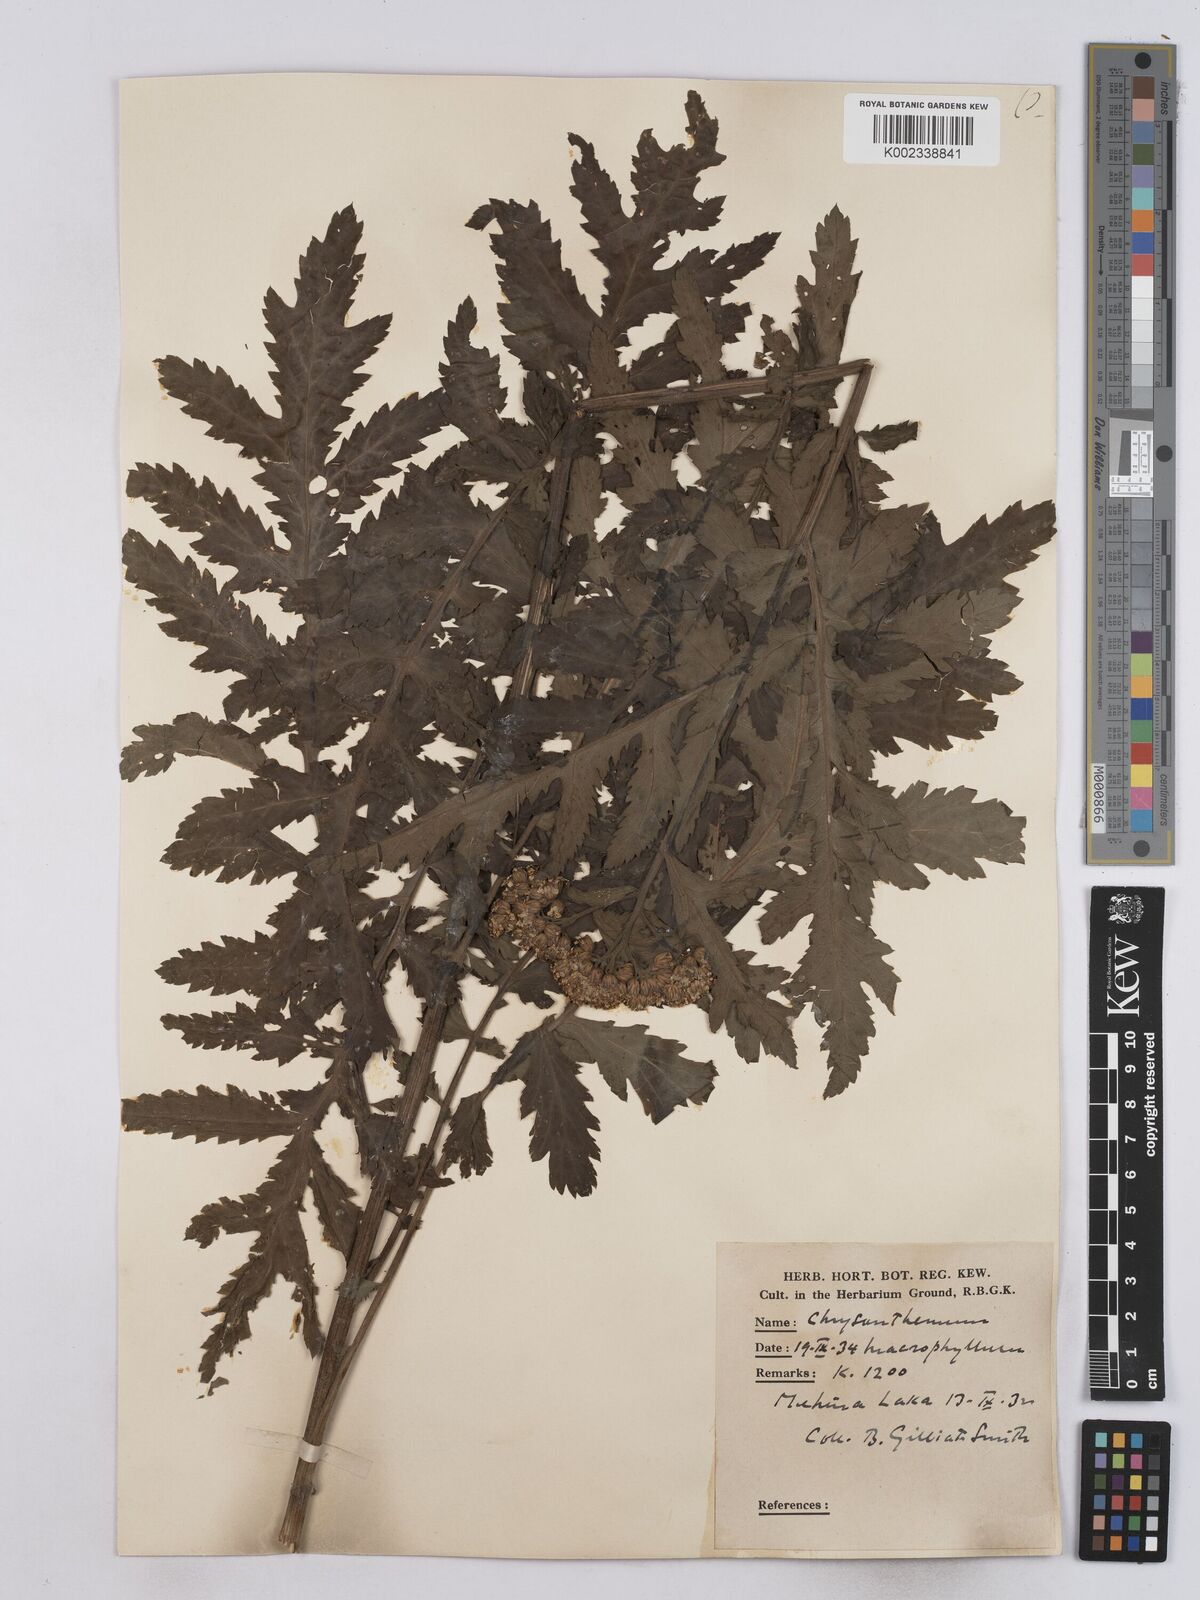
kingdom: Plantae
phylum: Tracheophyta
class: Magnoliopsida
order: Asterales
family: Asteraceae
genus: Tanacetum
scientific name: Tanacetum macrophyllum
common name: Rayed tansy
